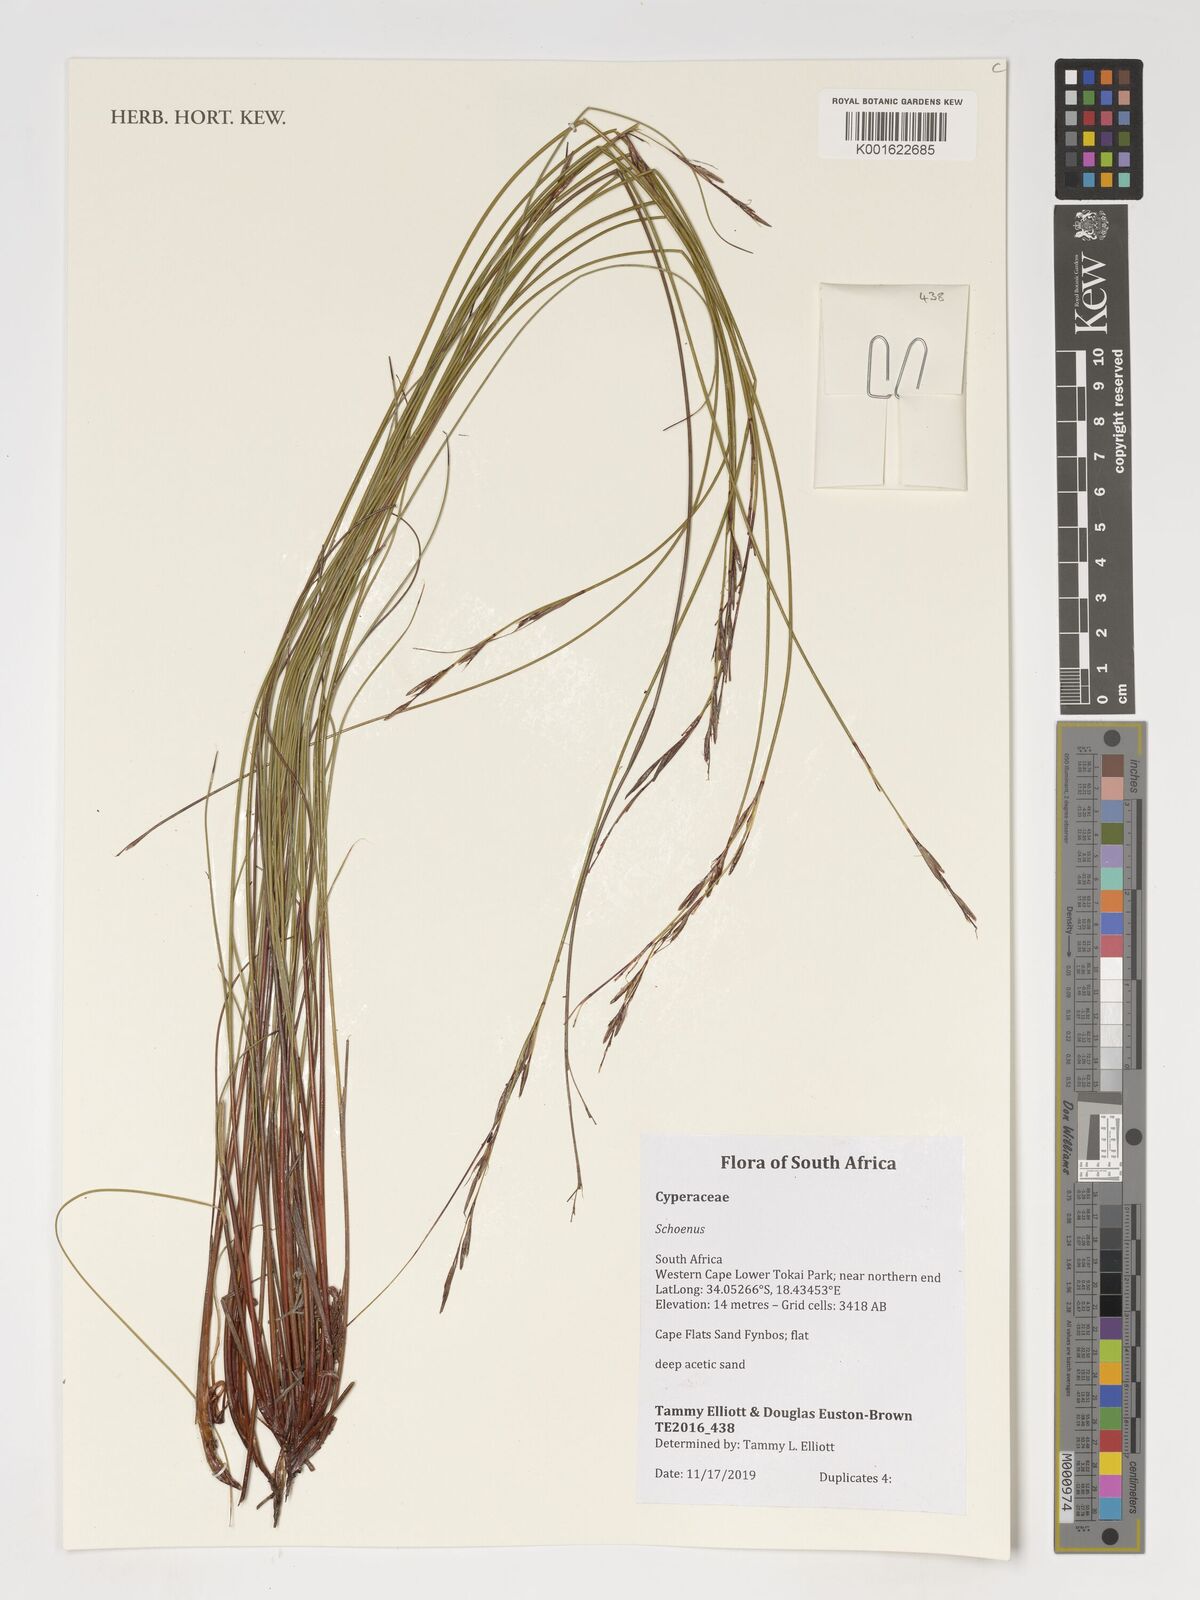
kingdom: Plantae
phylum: Tracheophyta
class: Liliopsida
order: Poales
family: Cyperaceae
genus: Schoenus
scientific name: Schoenus
